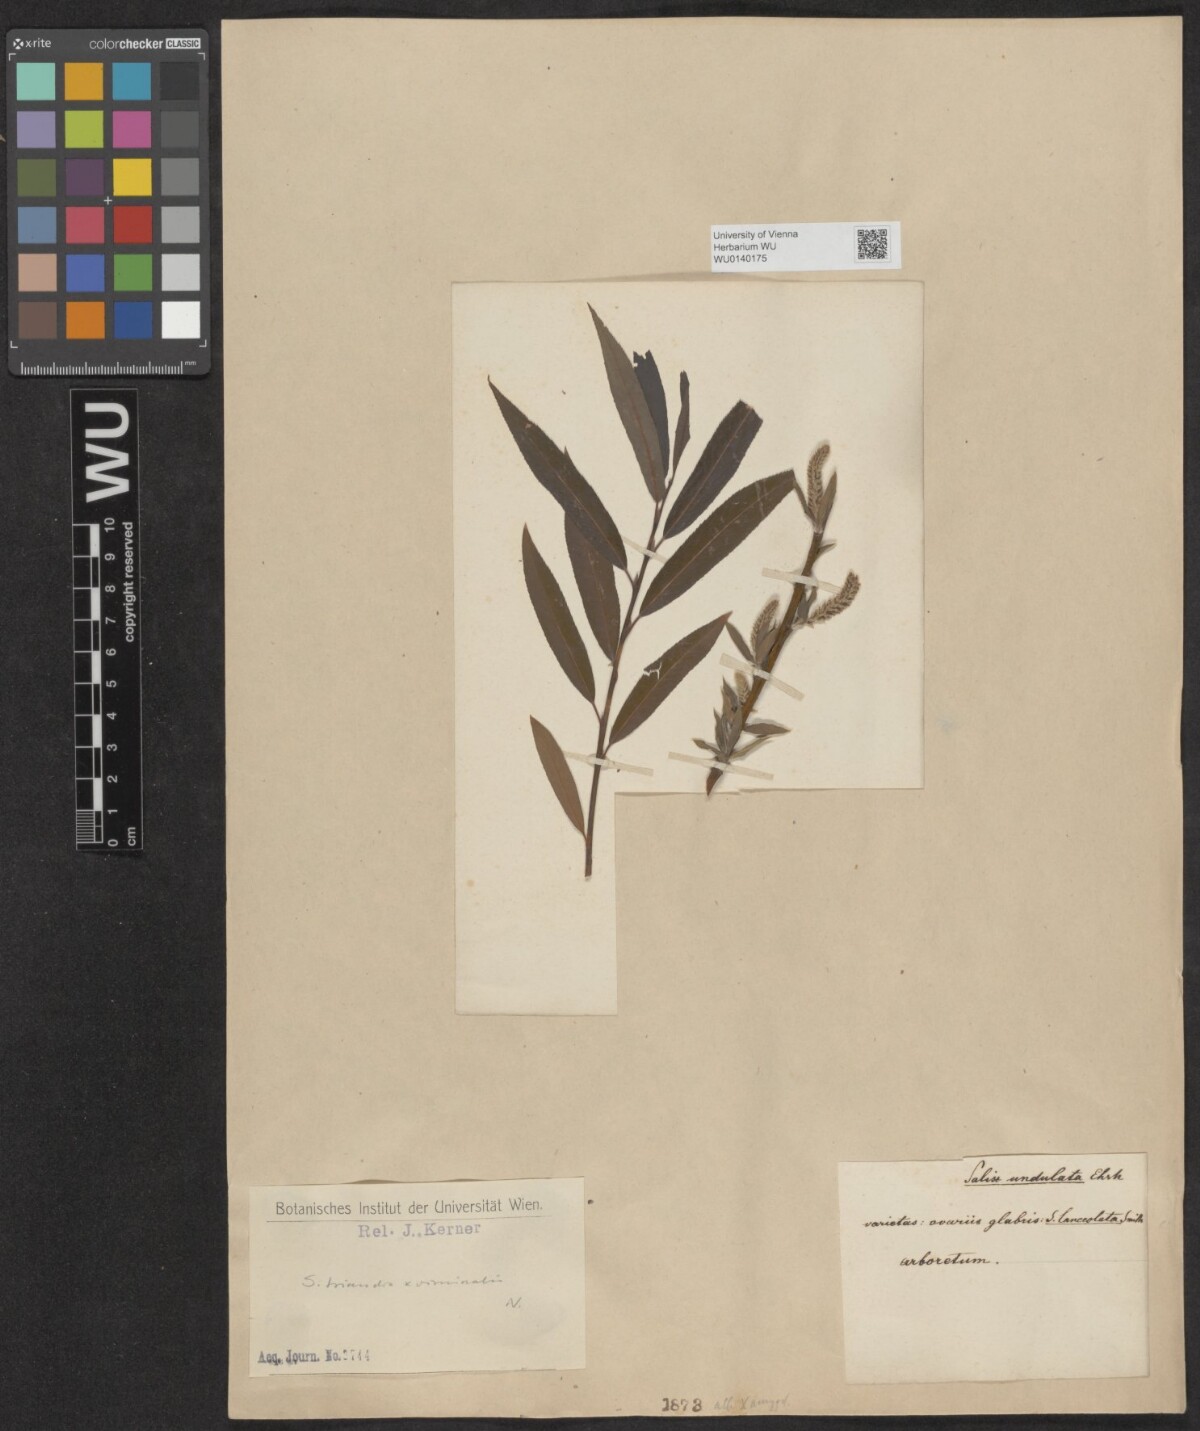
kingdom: Plantae
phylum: Tracheophyta
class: Magnoliopsida
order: Malpighiales
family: Salicaceae
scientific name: Salicaceae
